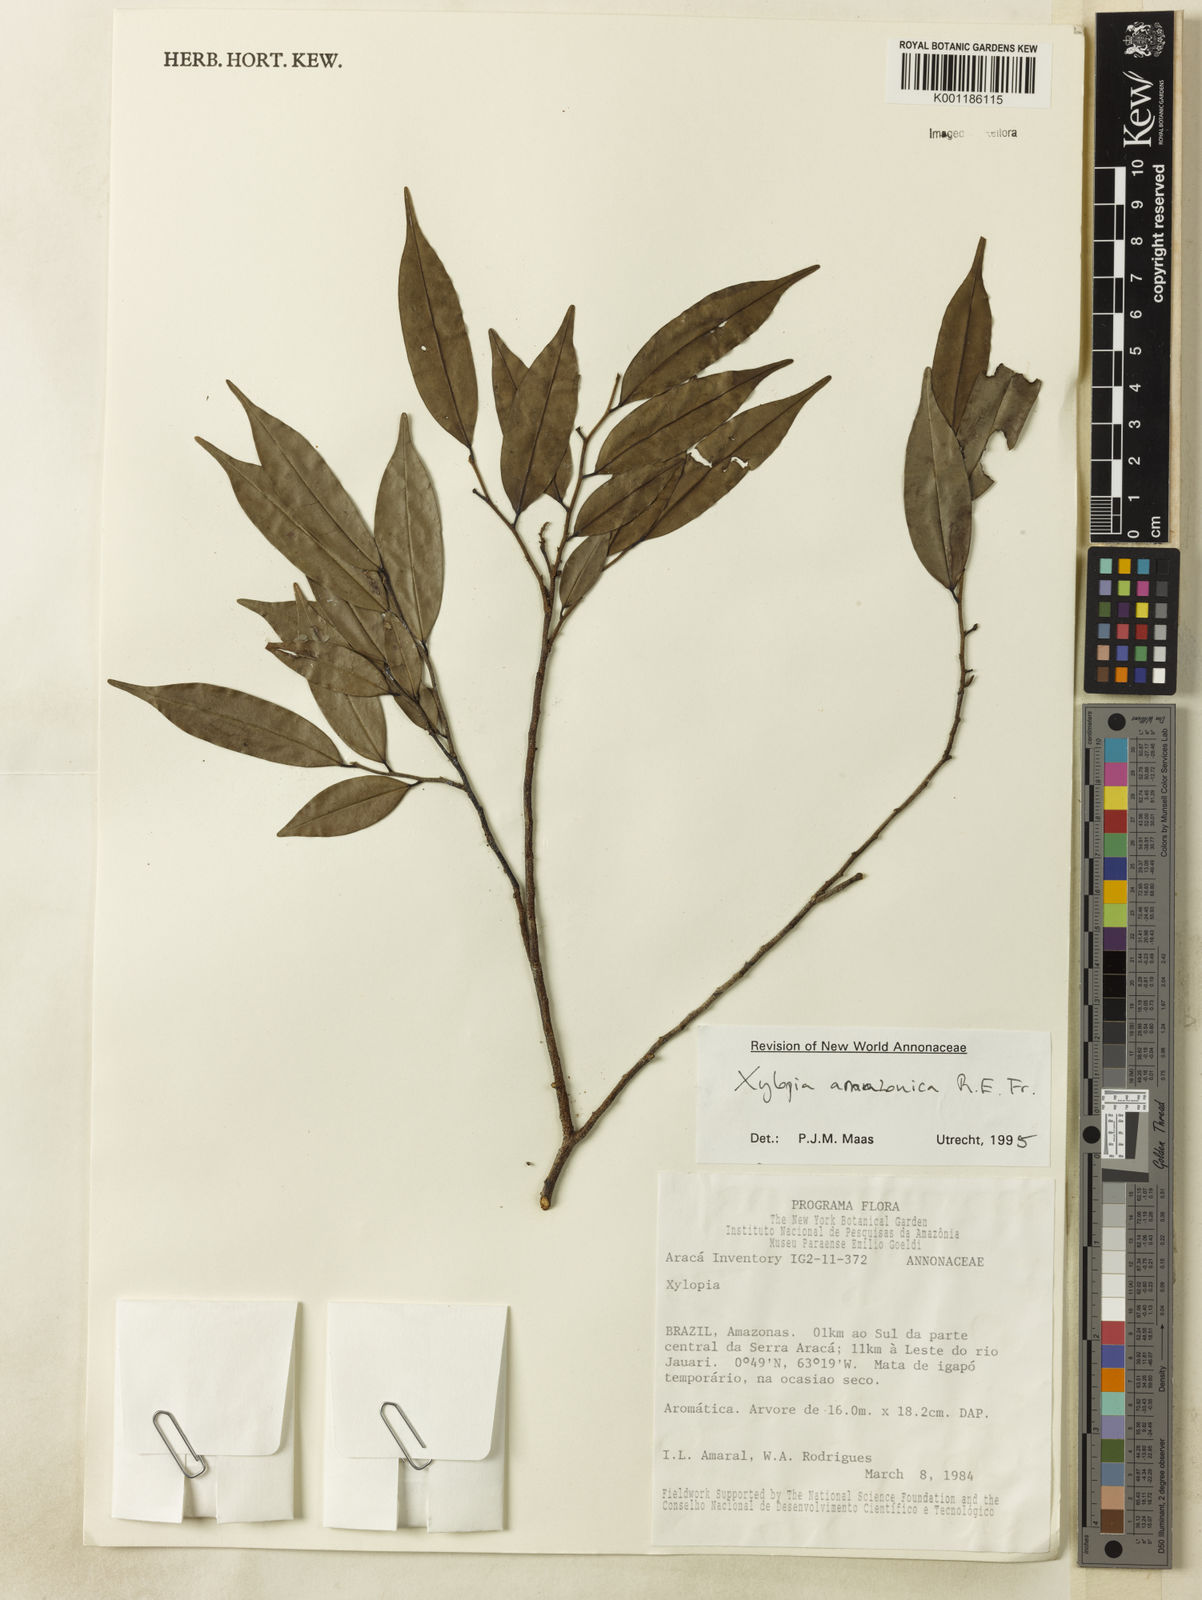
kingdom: Plantae
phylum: Tracheophyta
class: Magnoliopsida
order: Magnoliales
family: Annonaceae
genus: Xylopia
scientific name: Xylopia amazonica
